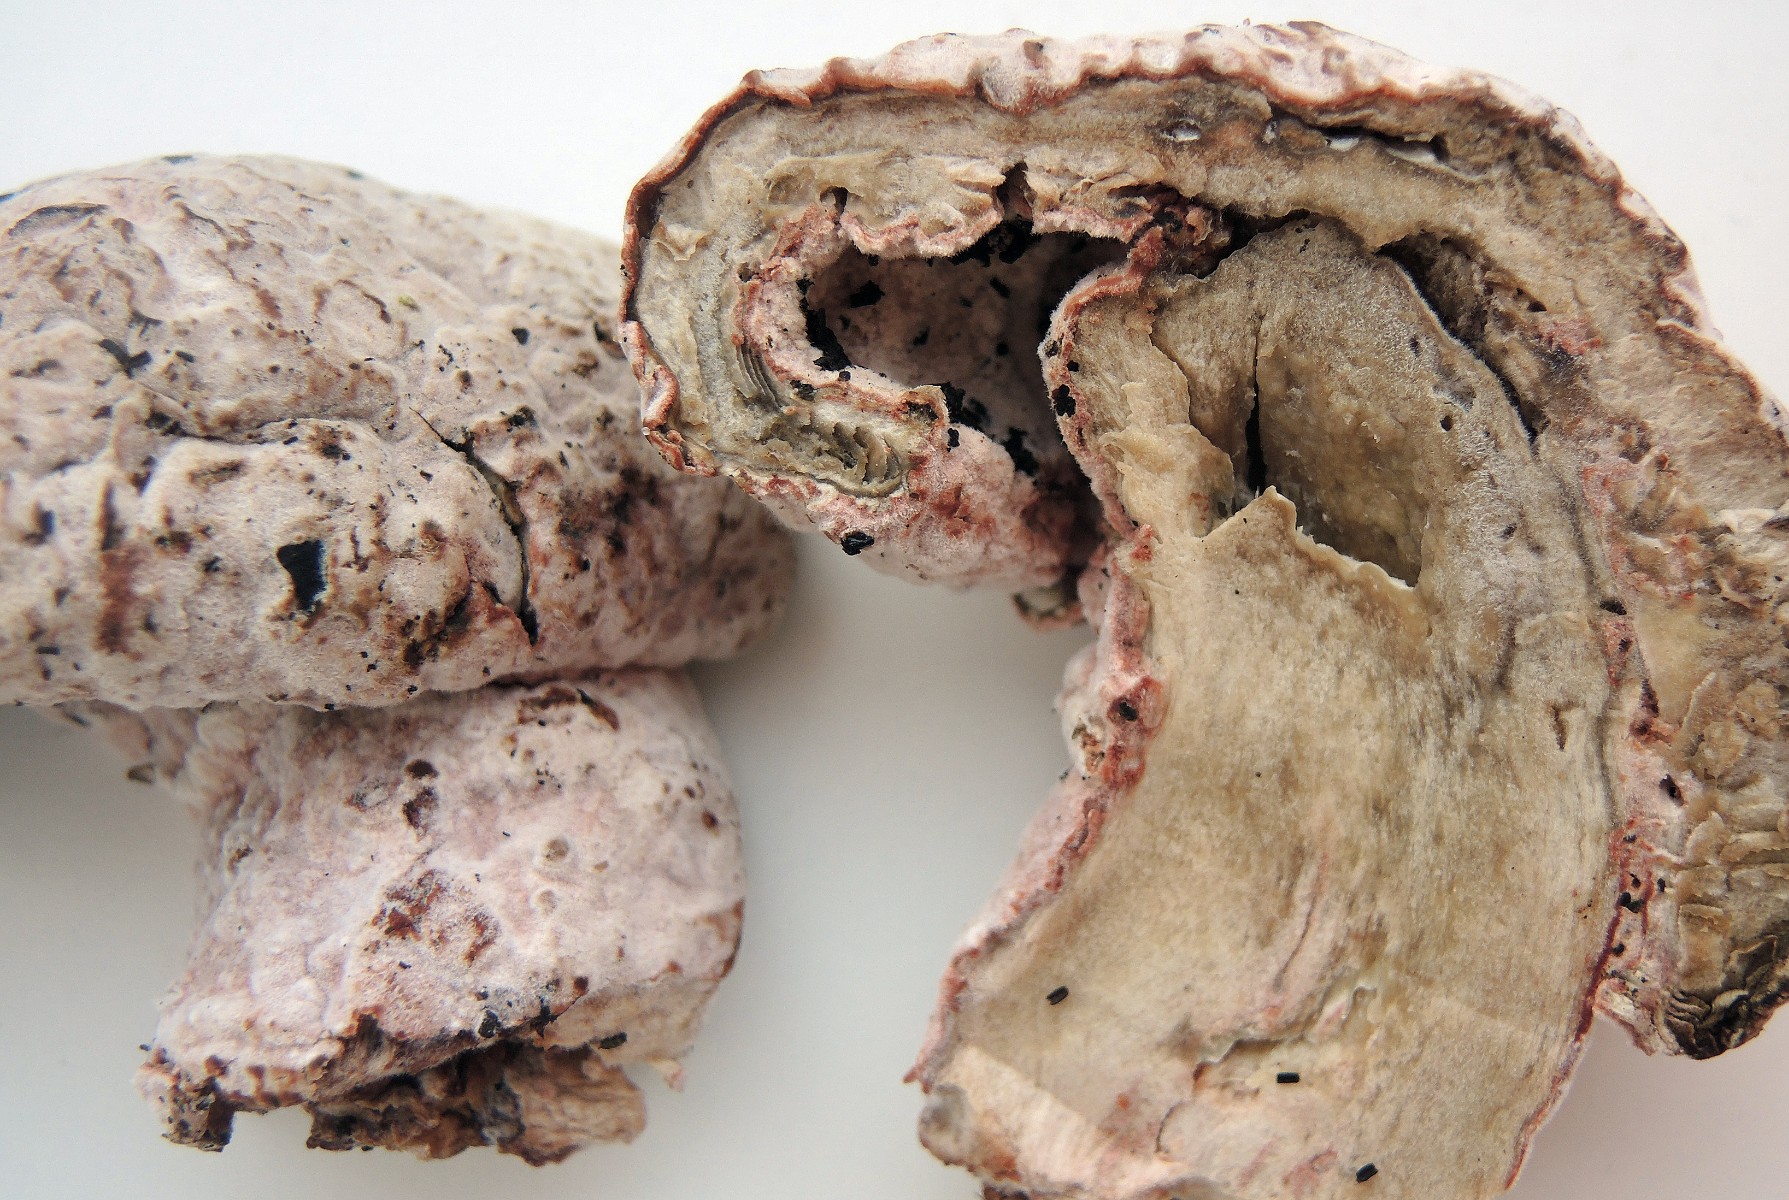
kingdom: Fungi
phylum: Ascomycota
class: Sordariomycetes
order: Hypocreales
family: Hypocreaceae
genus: Mycogone
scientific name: Mycogone rosea
